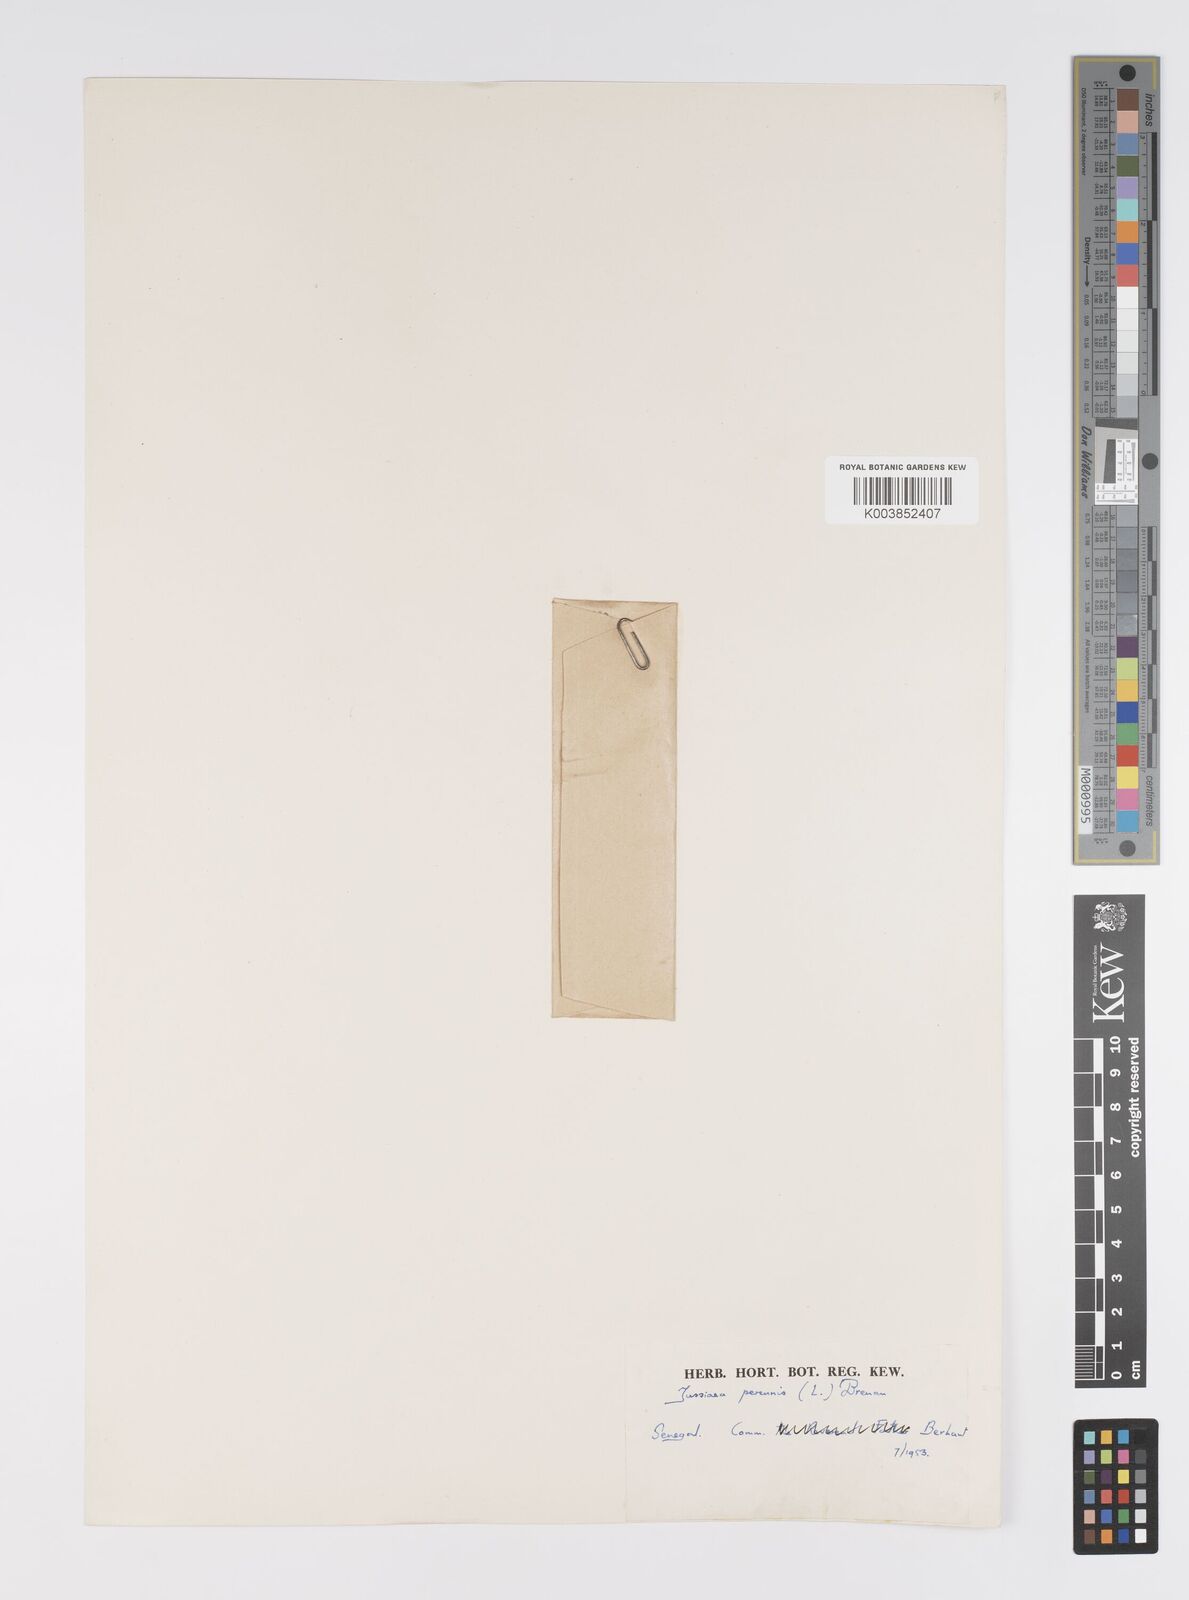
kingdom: Plantae
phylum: Tracheophyta
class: Magnoliopsida
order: Myrtales
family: Onagraceae
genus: Ludwigia
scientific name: Ludwigia perennis
